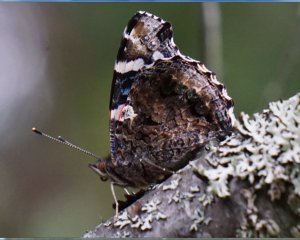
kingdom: Animalia
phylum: Arthropoda
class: Insecta
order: Lepidoptera
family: Nymphalidae
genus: Vanessa
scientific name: Vanessa atalanta
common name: Red Admiral
